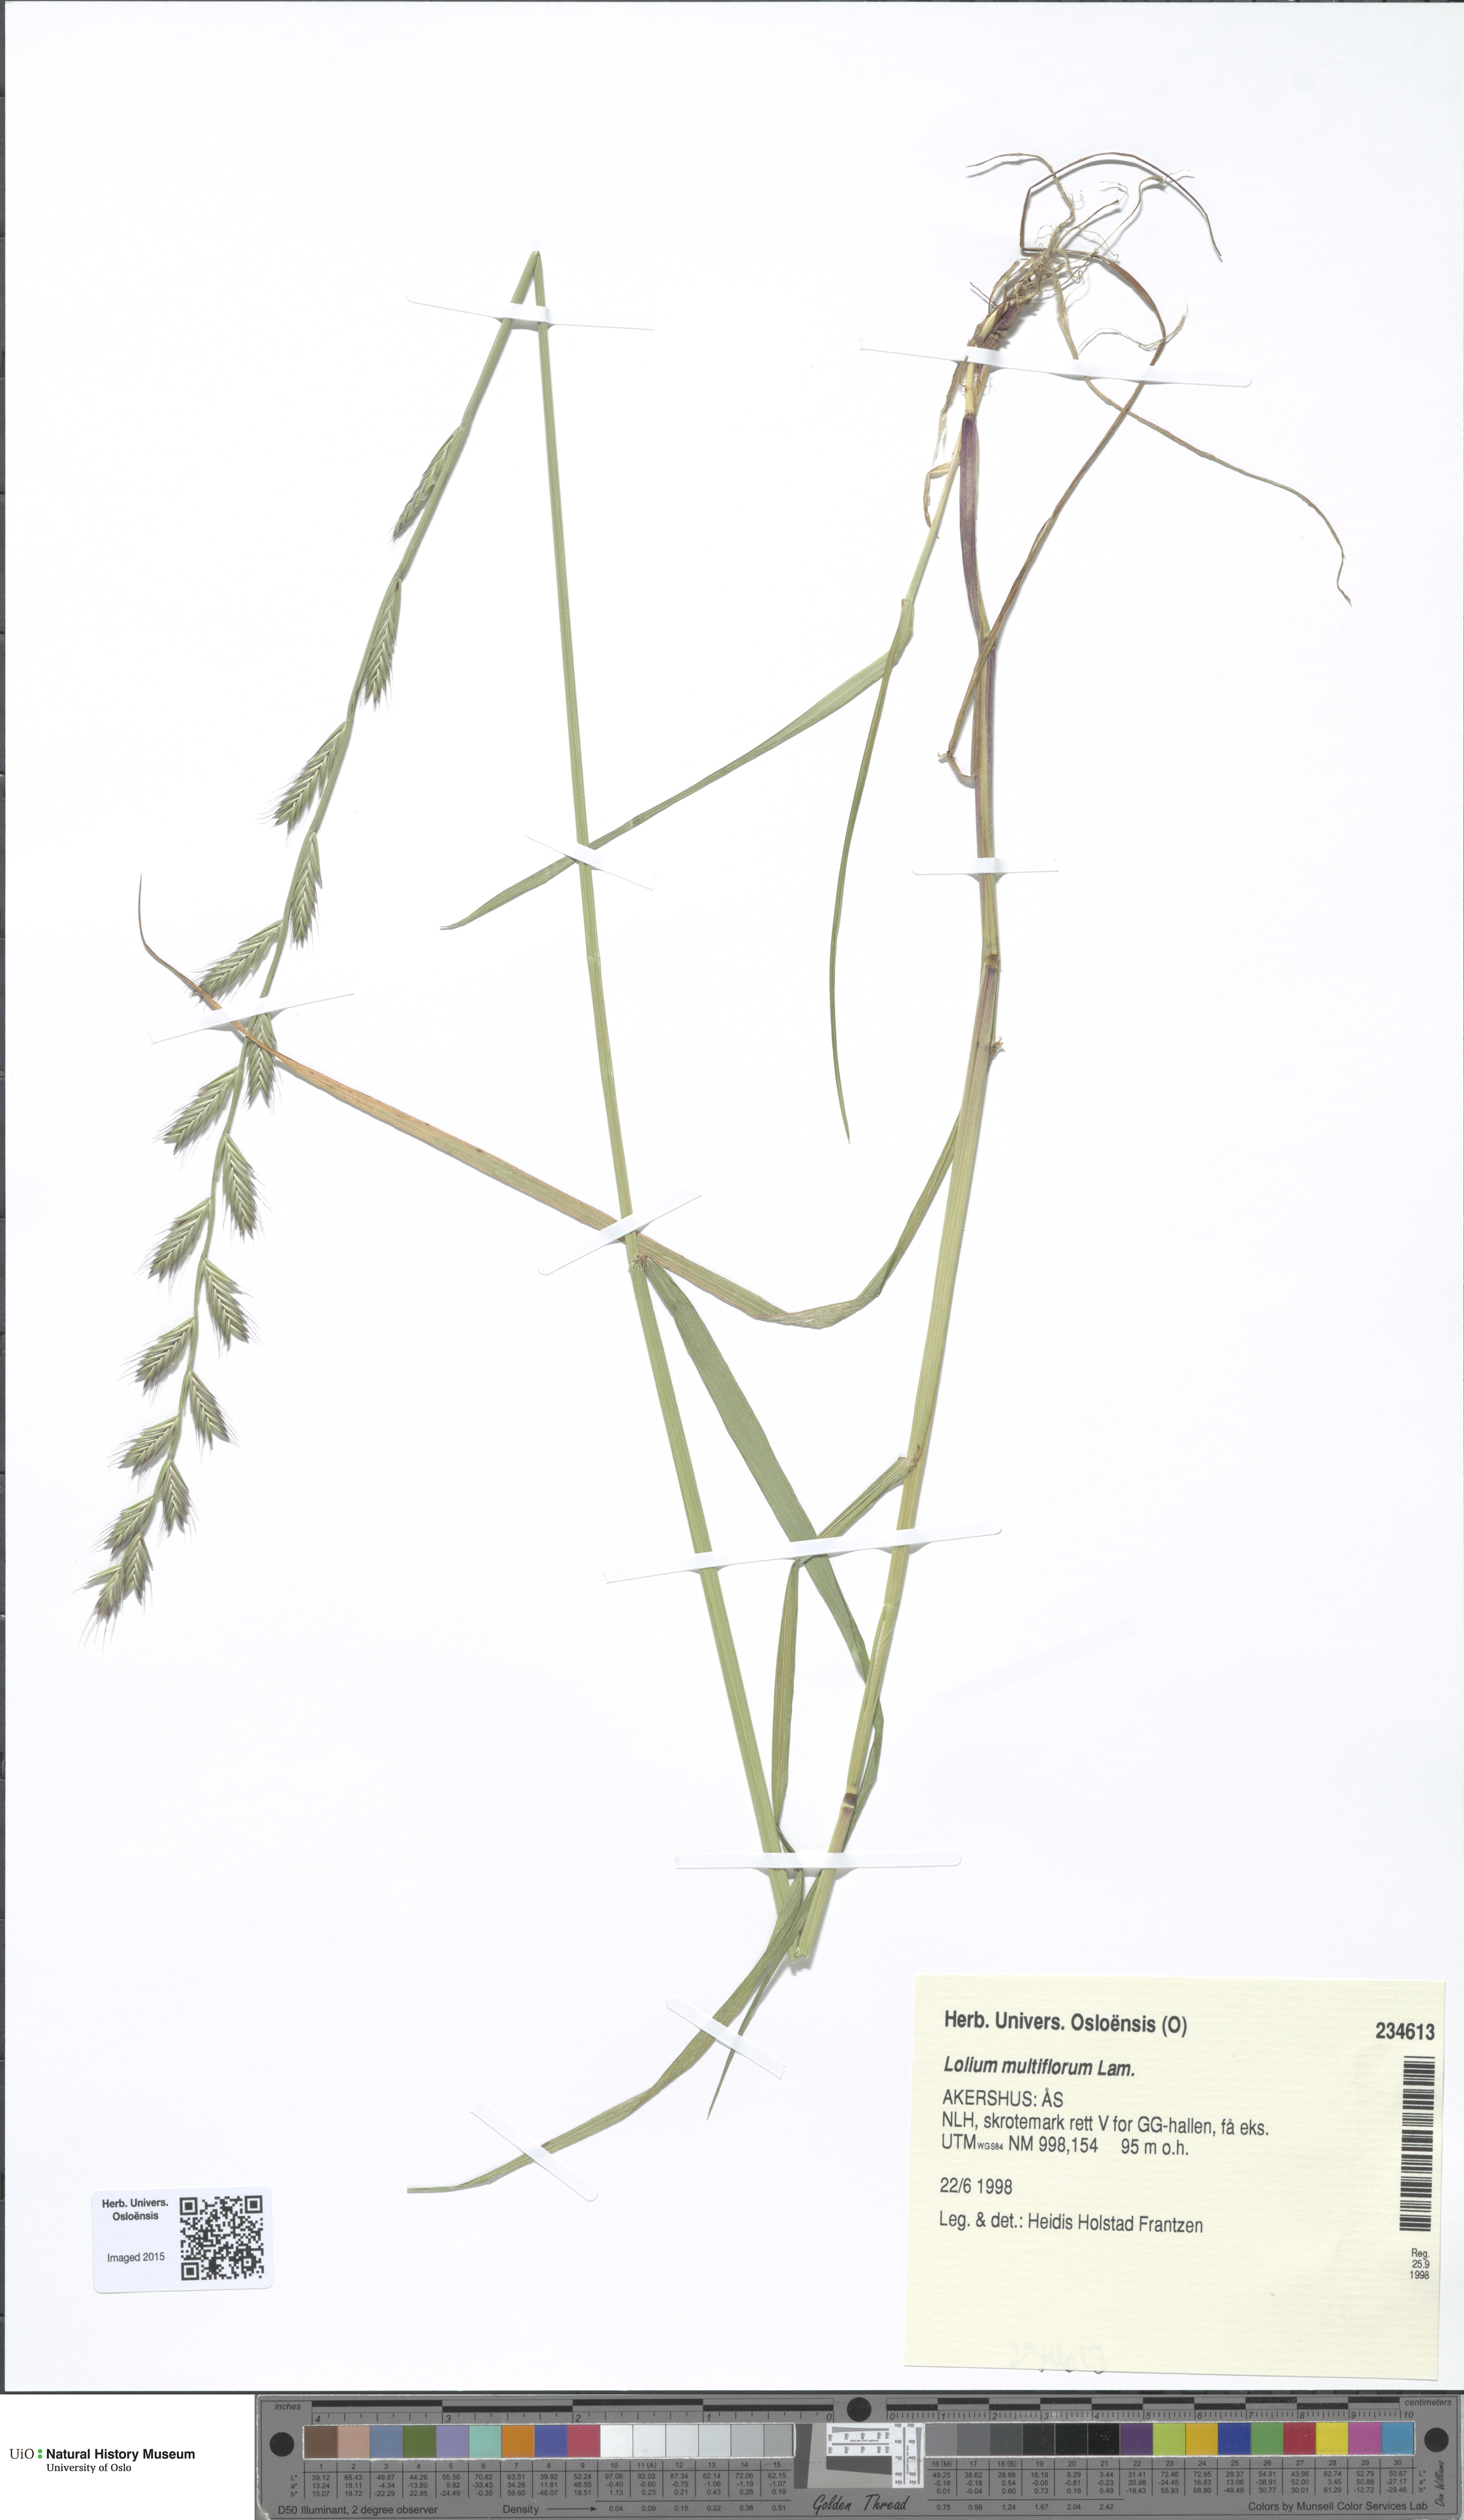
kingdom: Plantae
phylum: Tracheophyta
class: Liliopsida
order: Poales
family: Poaceae
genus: Lolium
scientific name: Lolium multiflorum
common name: Annual ryegrass
